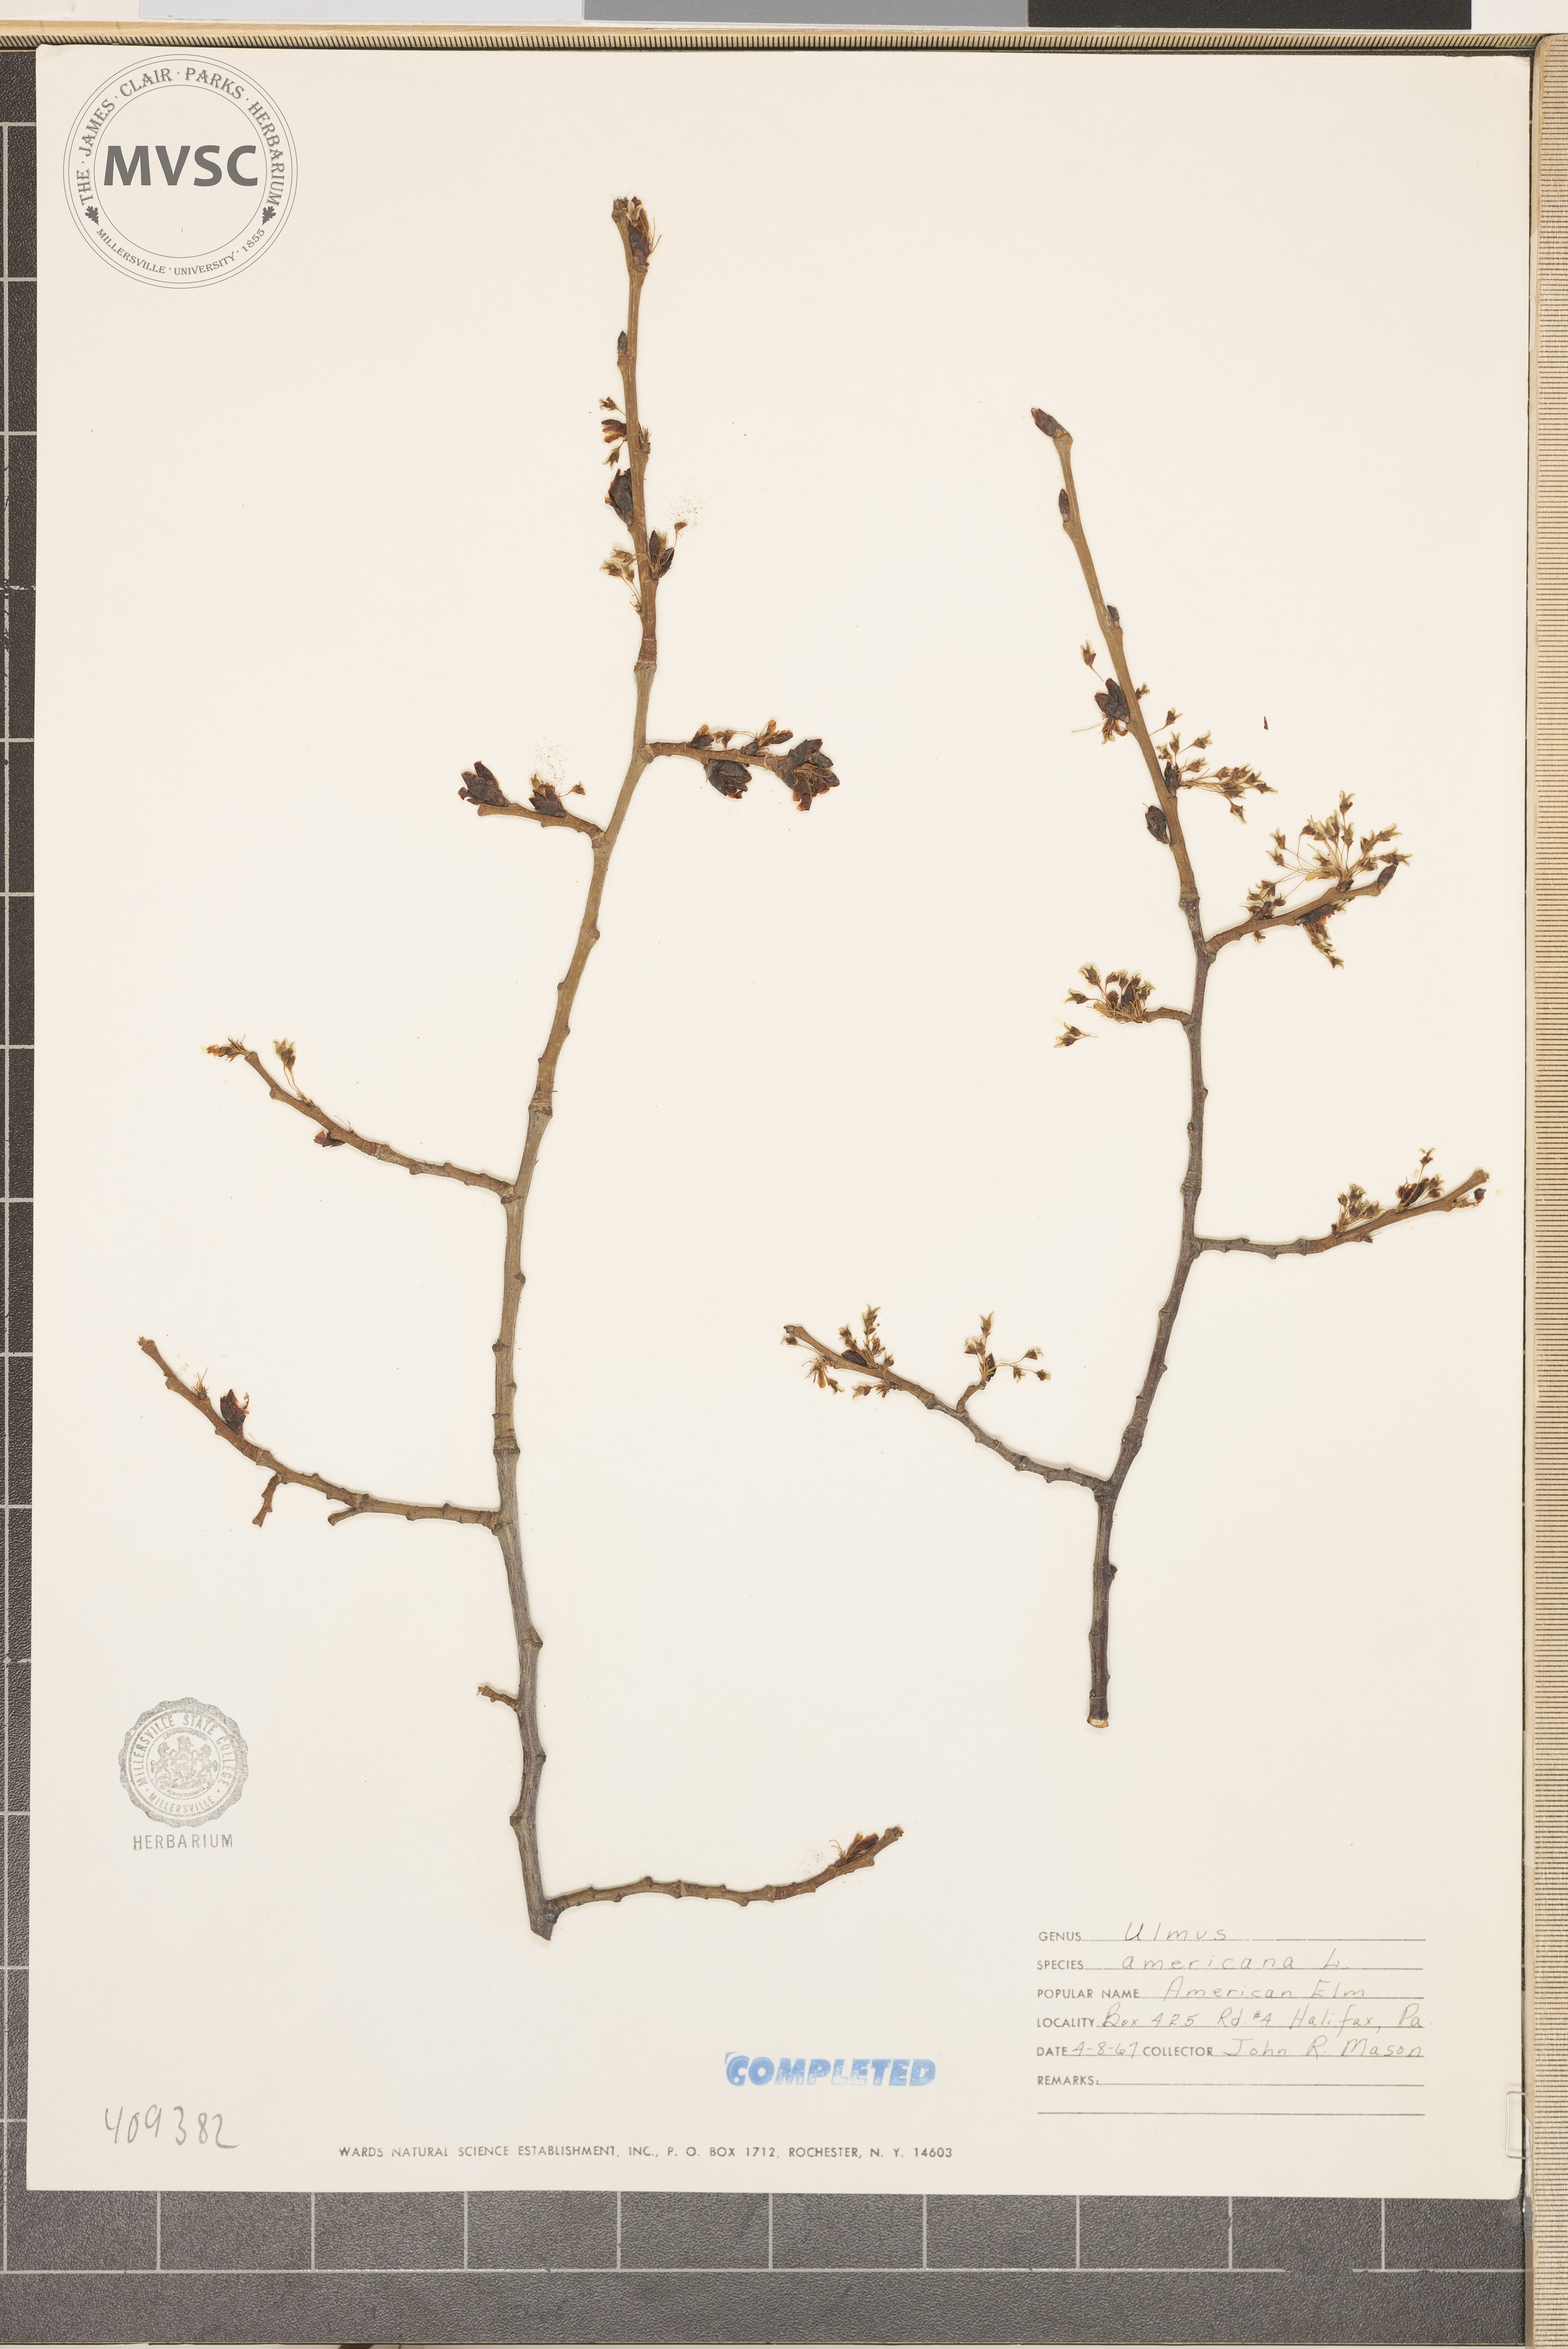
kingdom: Plantae
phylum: Tracheophyta
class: Magnoliopsida
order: Rosales
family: Ulmaceae
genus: Ulmus
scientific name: Ulmus americana
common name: American elm
